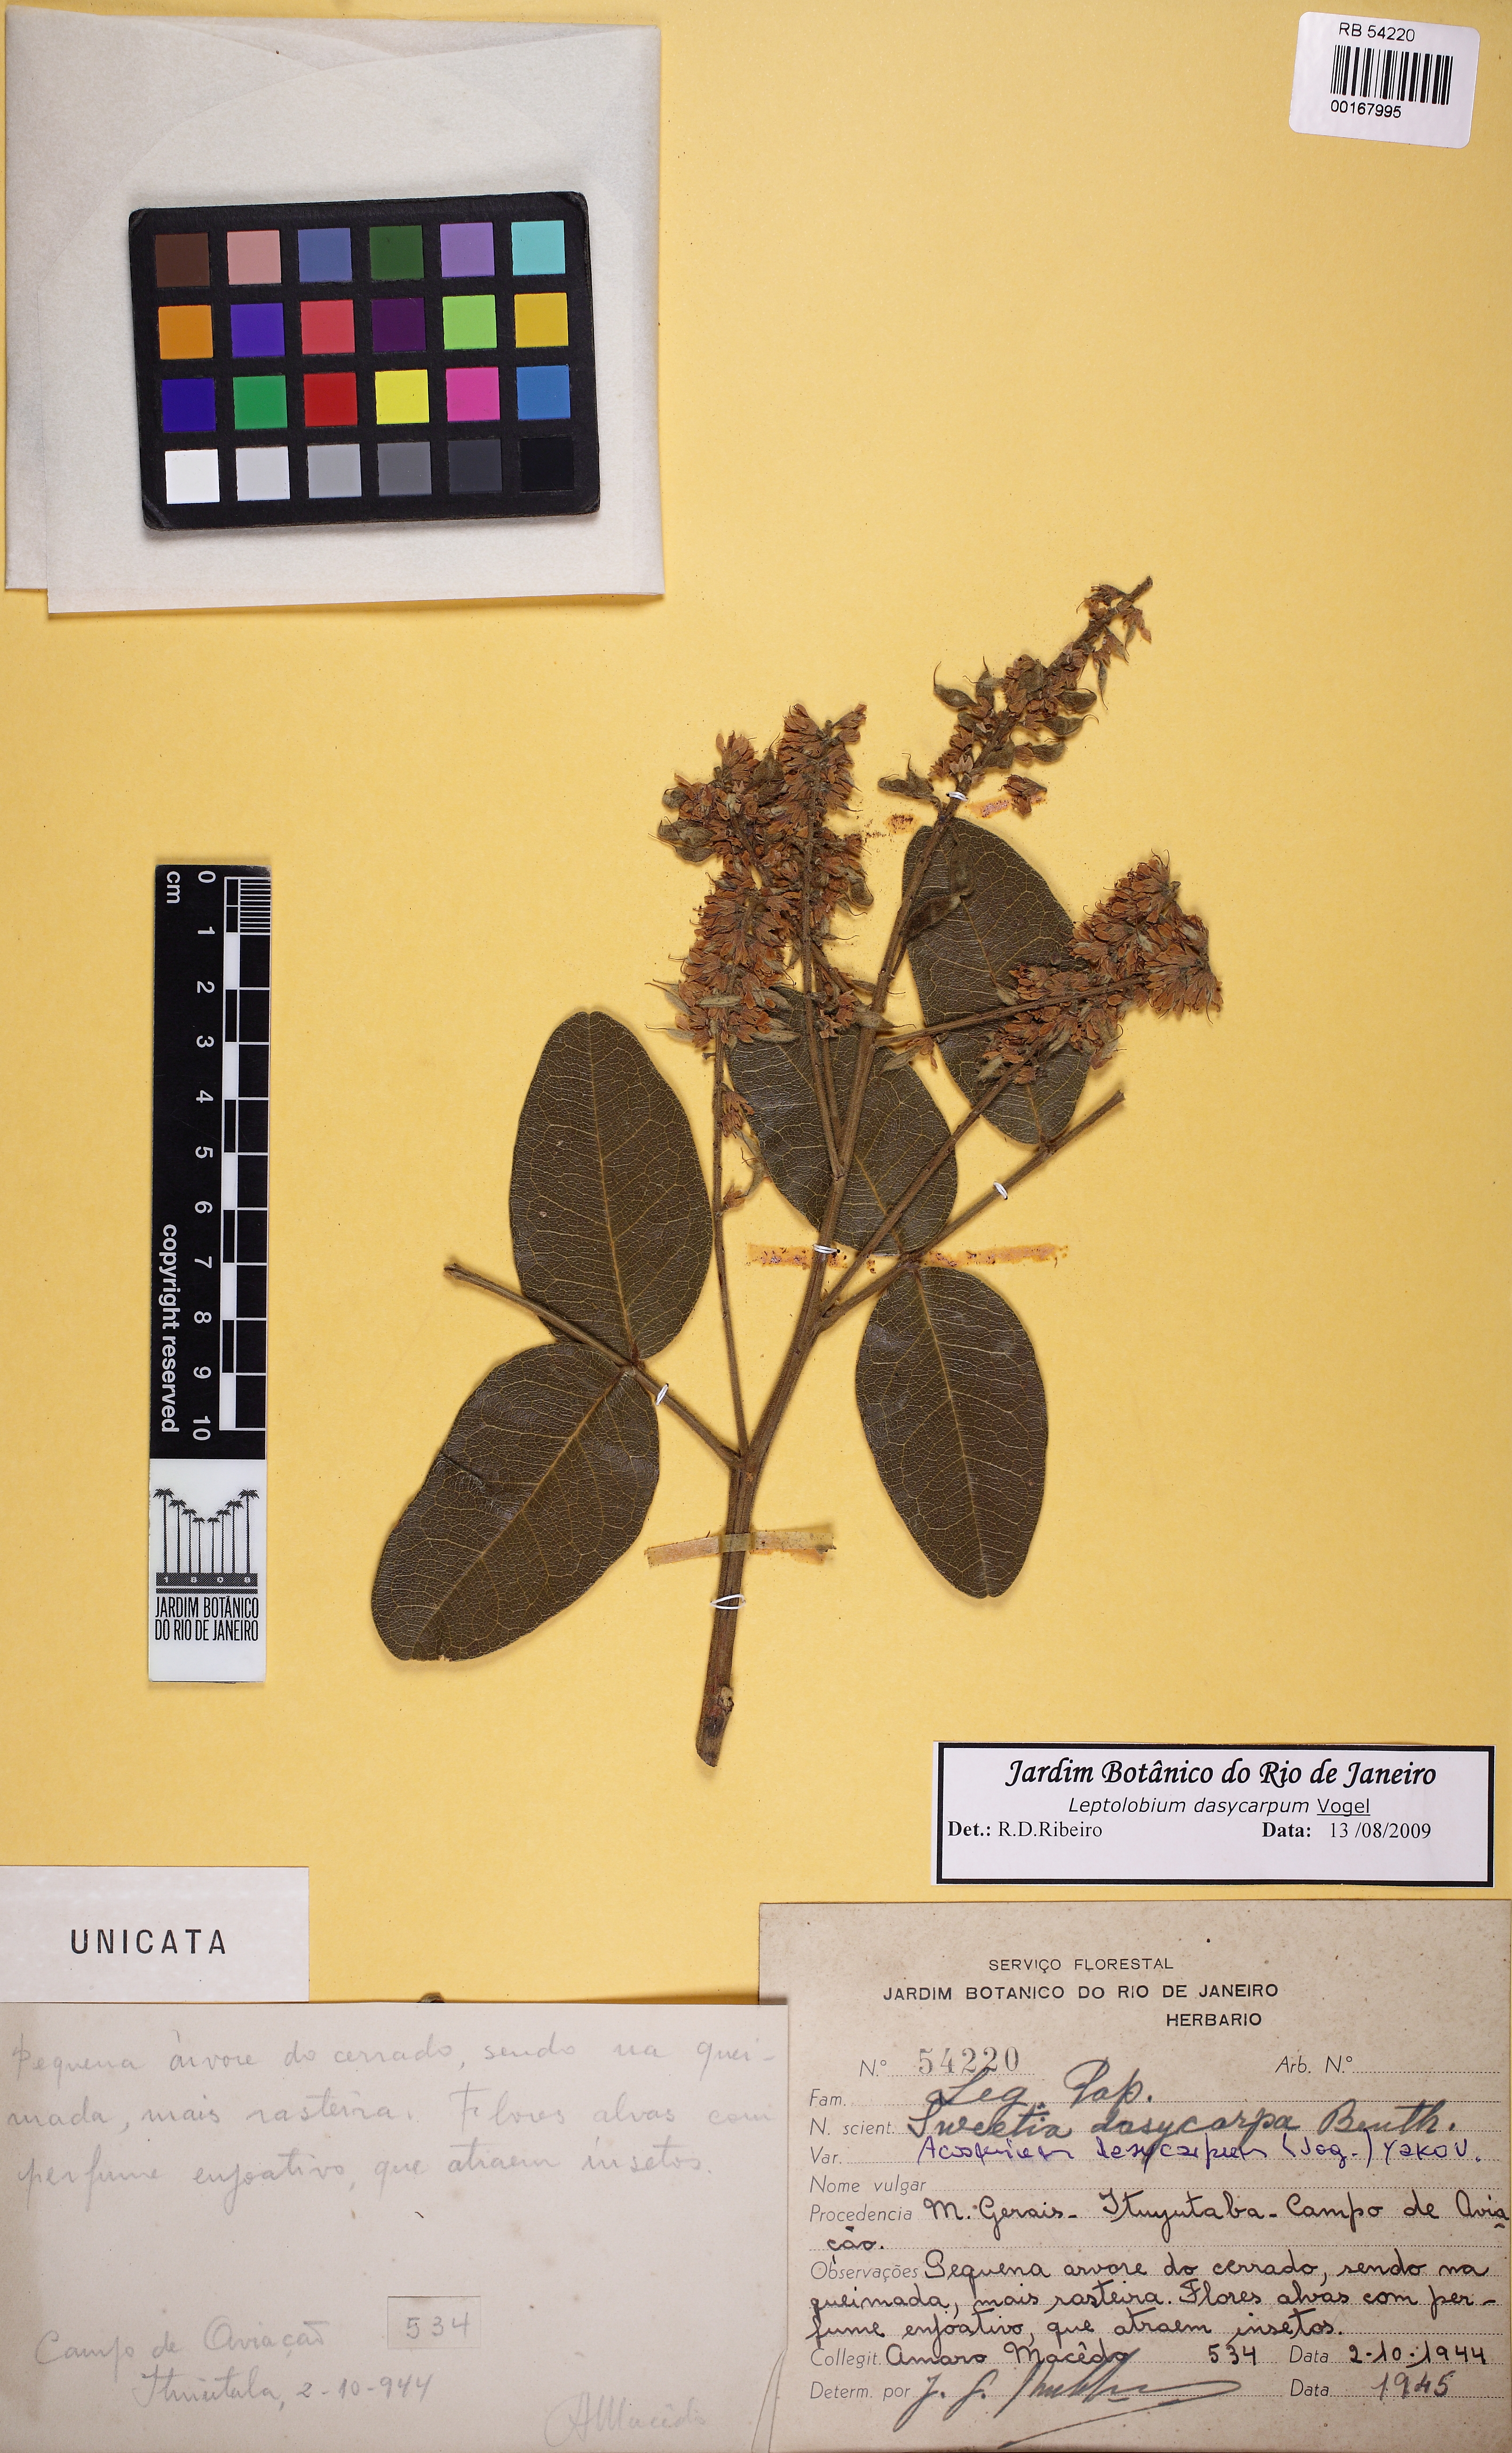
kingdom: Plantae
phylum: Tracheophyta
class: Magnoliopsida
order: Fabales
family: Fabaceae
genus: Leptolobium
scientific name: Leptolobium dasycarpum
